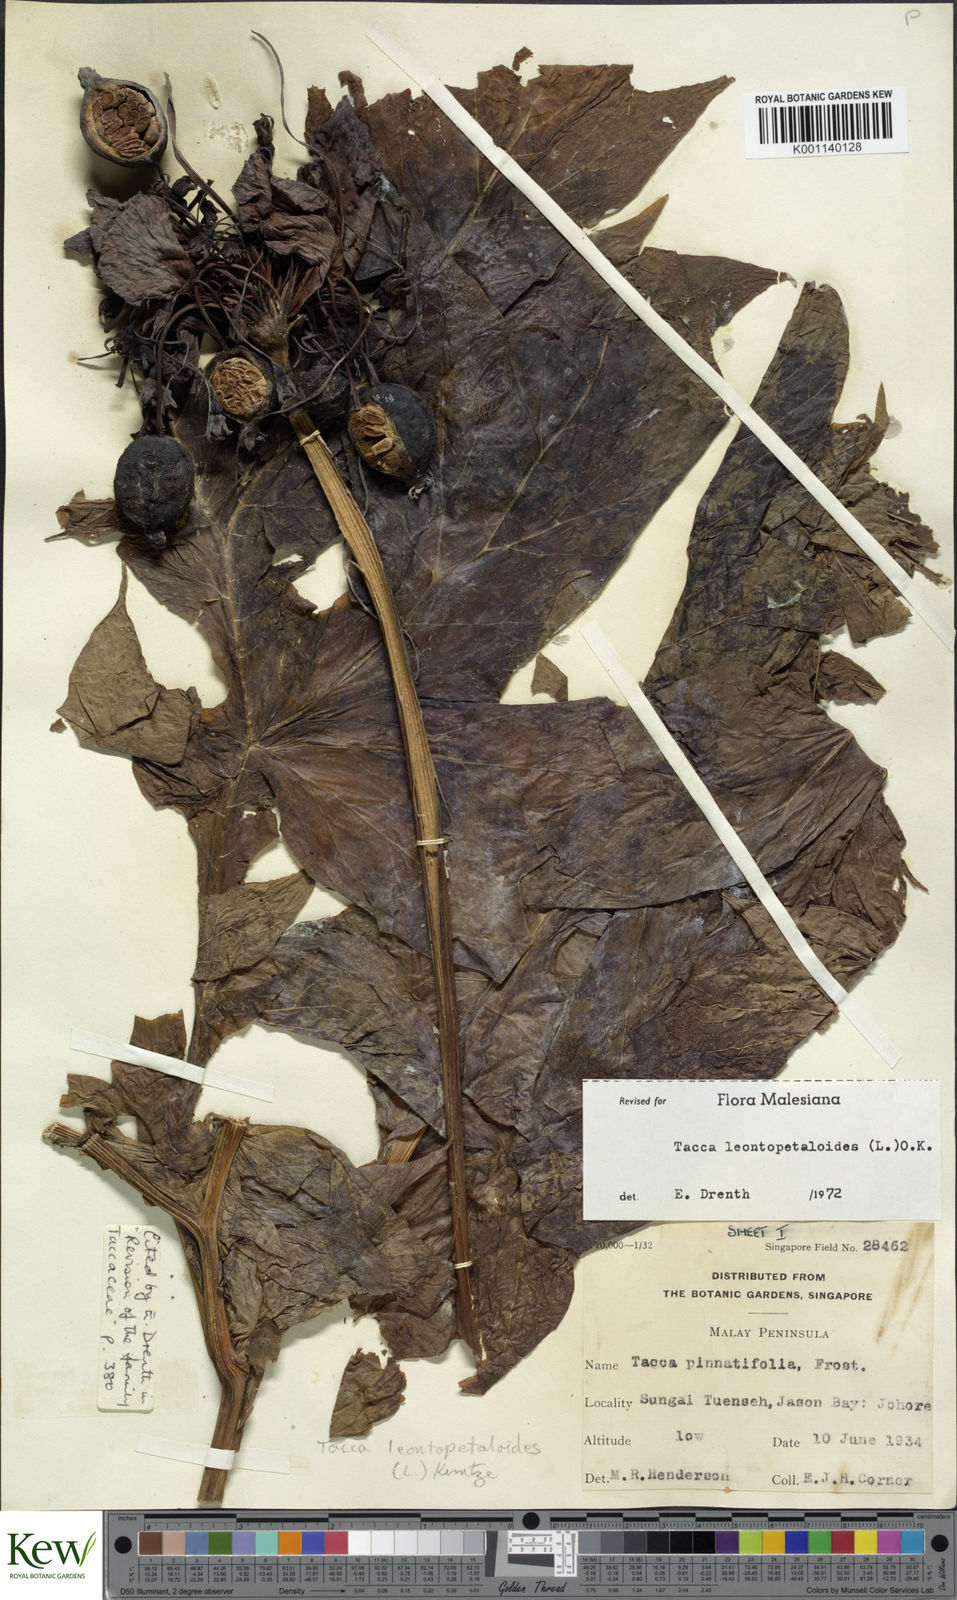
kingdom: Plantae
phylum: Tracheophyta
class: Liliopsida
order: Dioscoreales
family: Dioscoreaceae
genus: Tacca
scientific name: Tacca leontopetaloides
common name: Arrowroot
